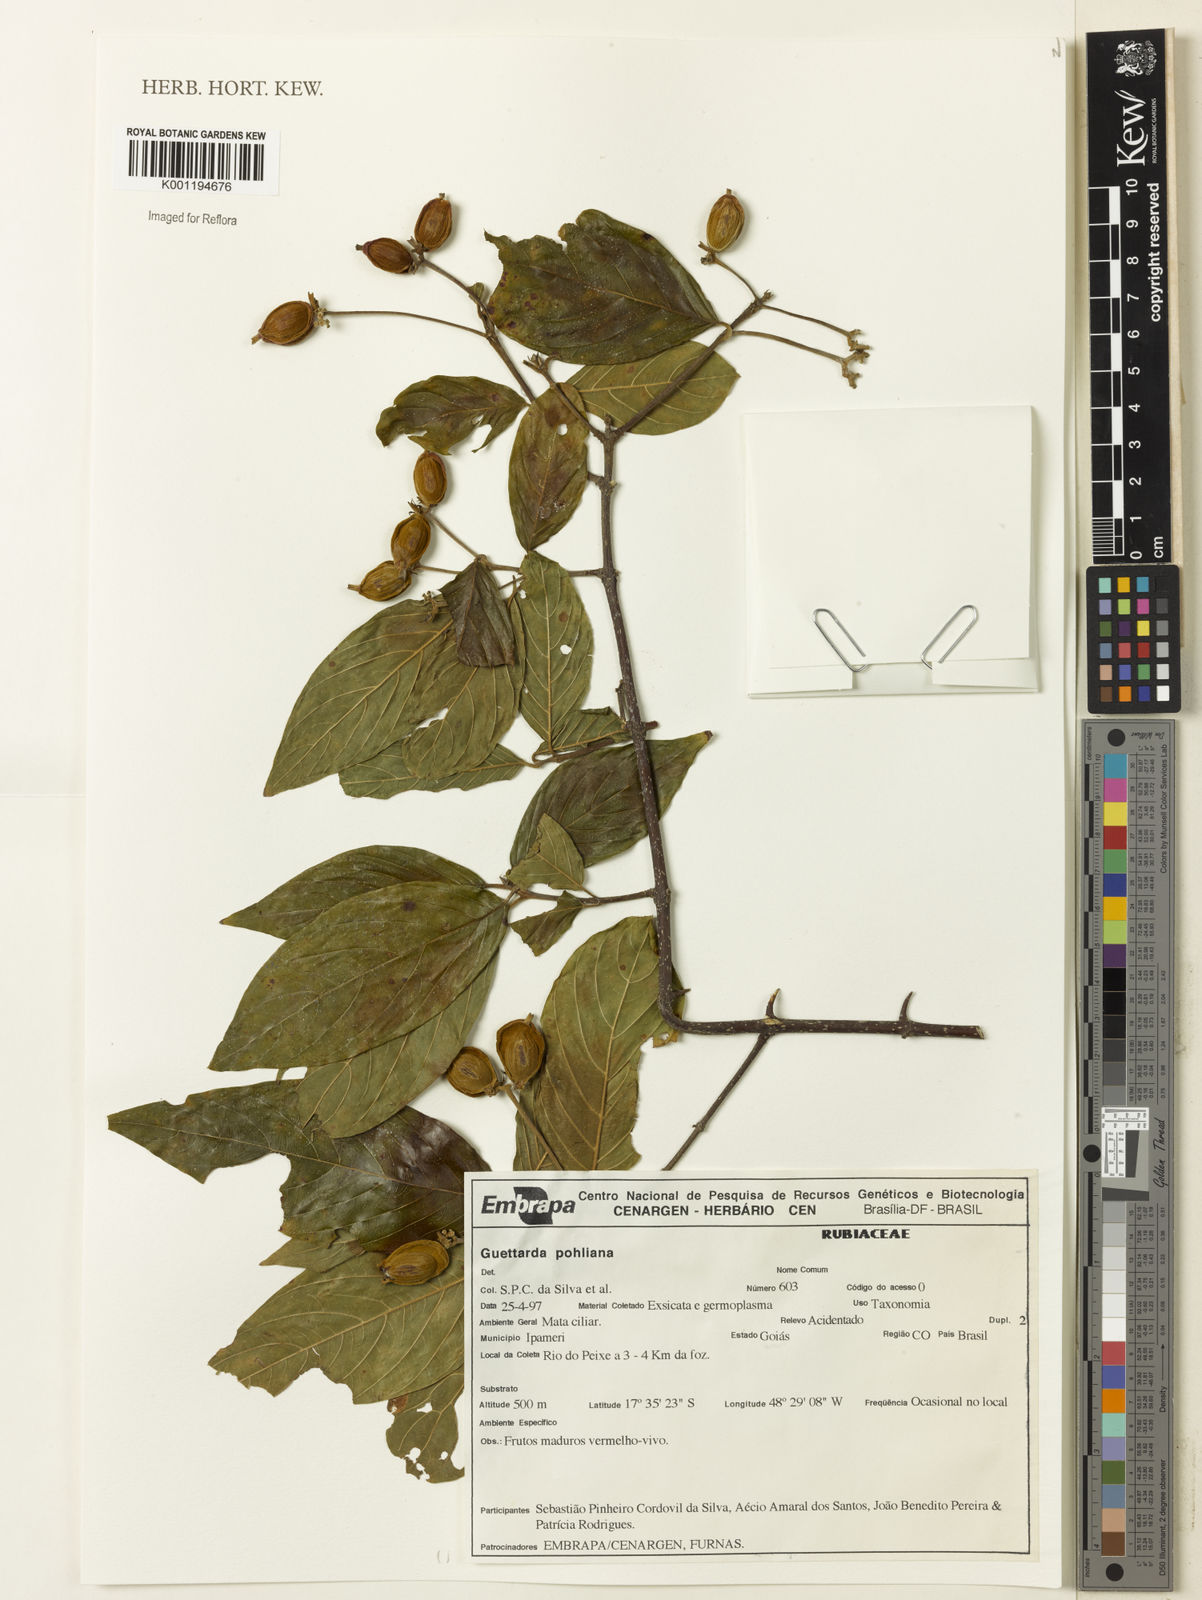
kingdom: Plantae
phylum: Tracheophyta
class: Magnoliopsida
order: Gentianales
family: Rubiaceae
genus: Guettarda
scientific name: Guettarda
